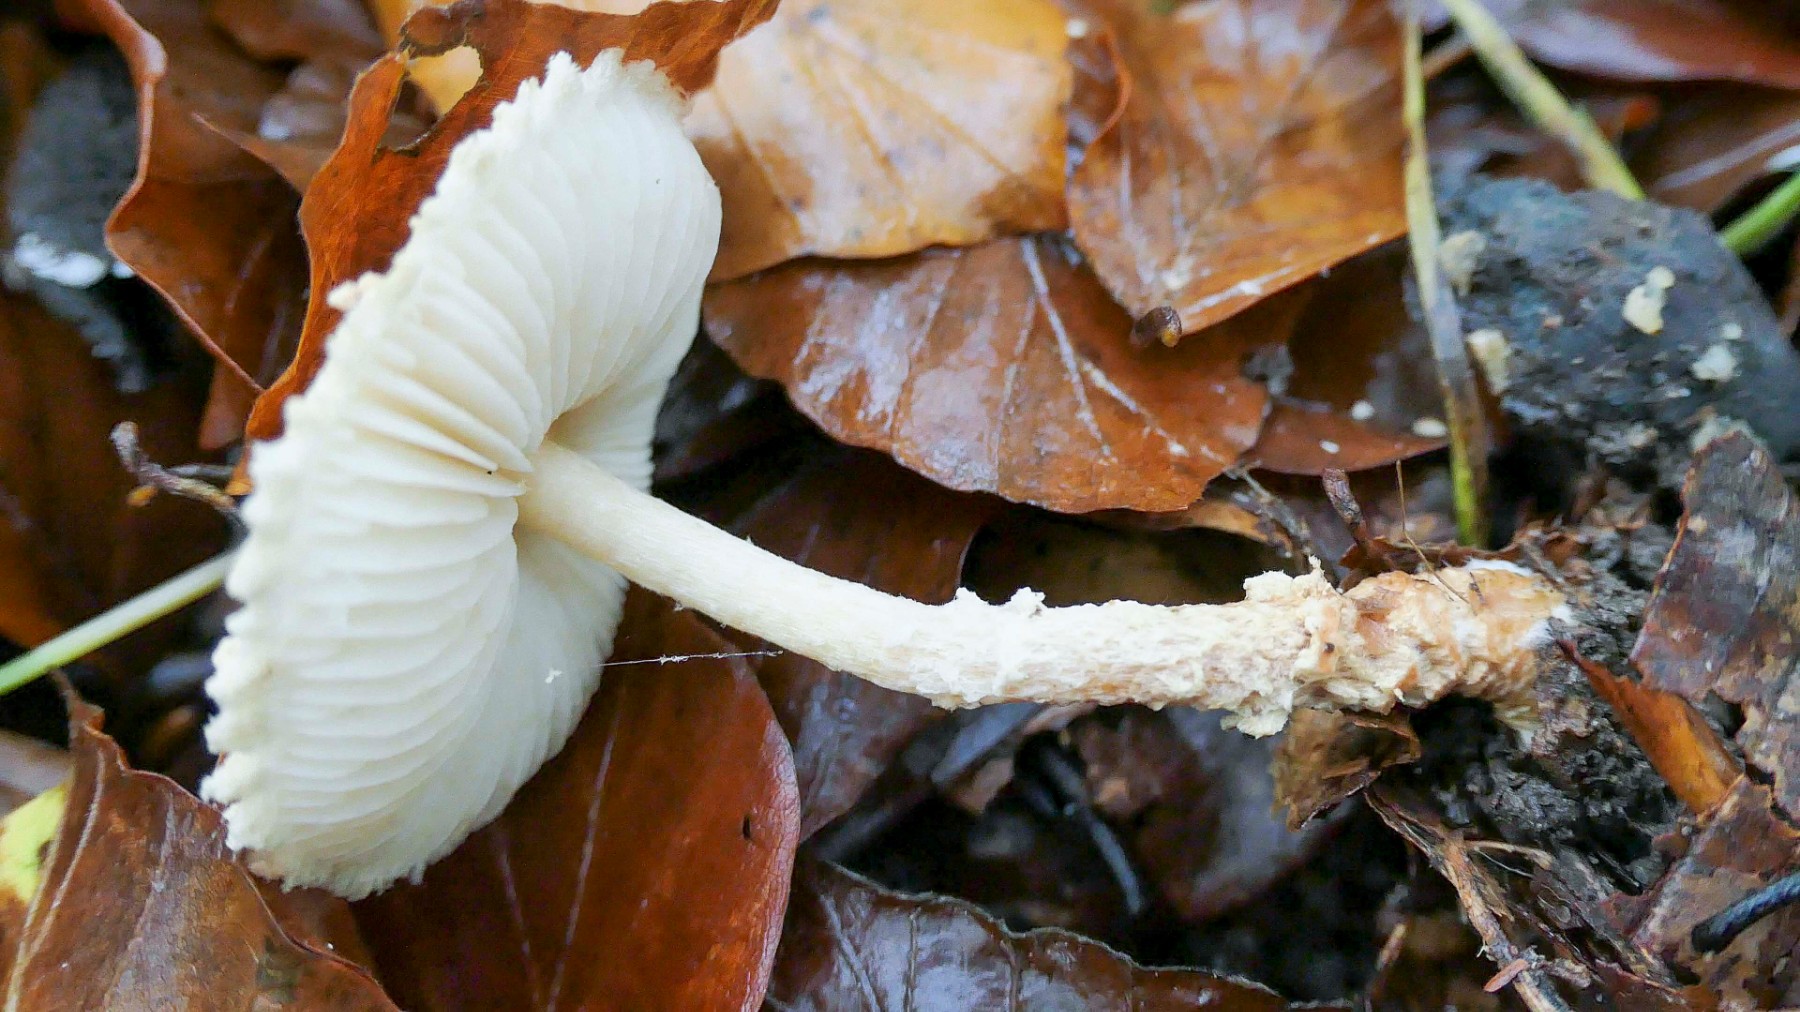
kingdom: Fungi
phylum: Basidiomycota
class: Agaricomycetes
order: Agaricales
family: Agaricaceae
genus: Lepiota
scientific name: Lepiota magnispora
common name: gulfnugget parasolhat
